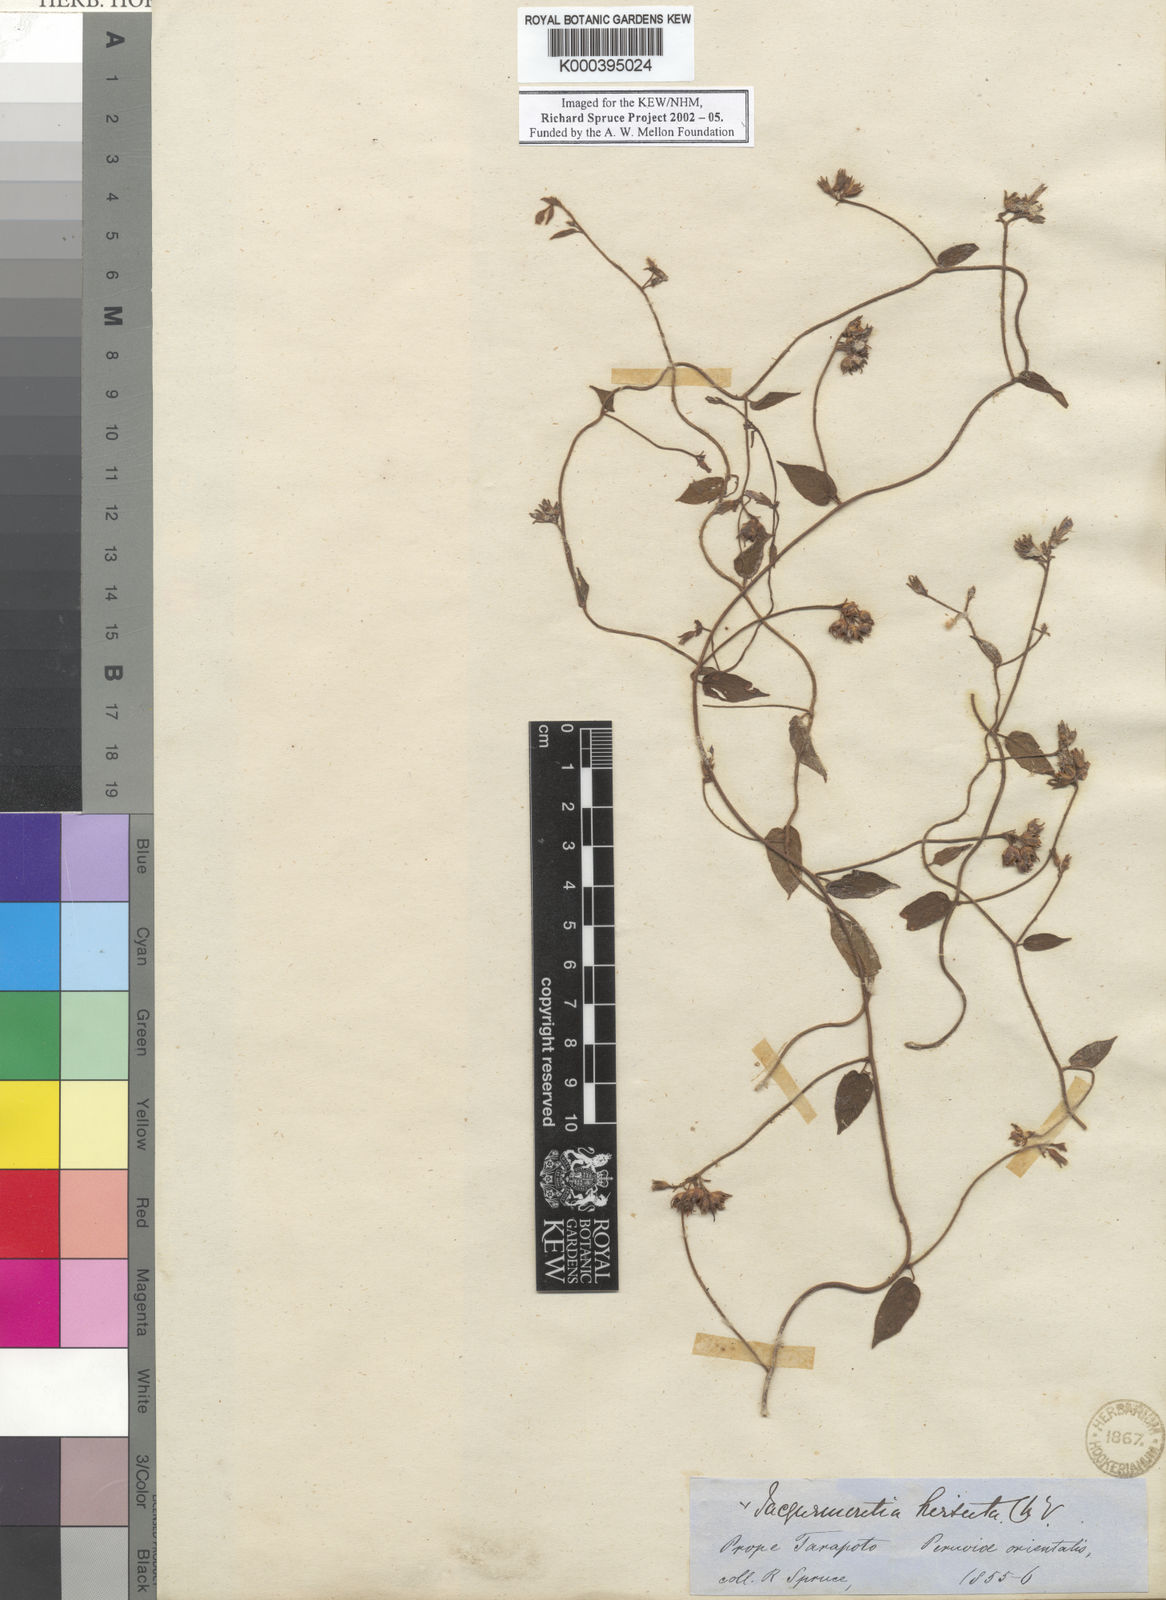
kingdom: Plantae
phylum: Tracheophyta
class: Magnoliopsida
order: Solanales
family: Convolvulaceae
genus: Jacquemontia
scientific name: Jacquemontia sphaerostigma
